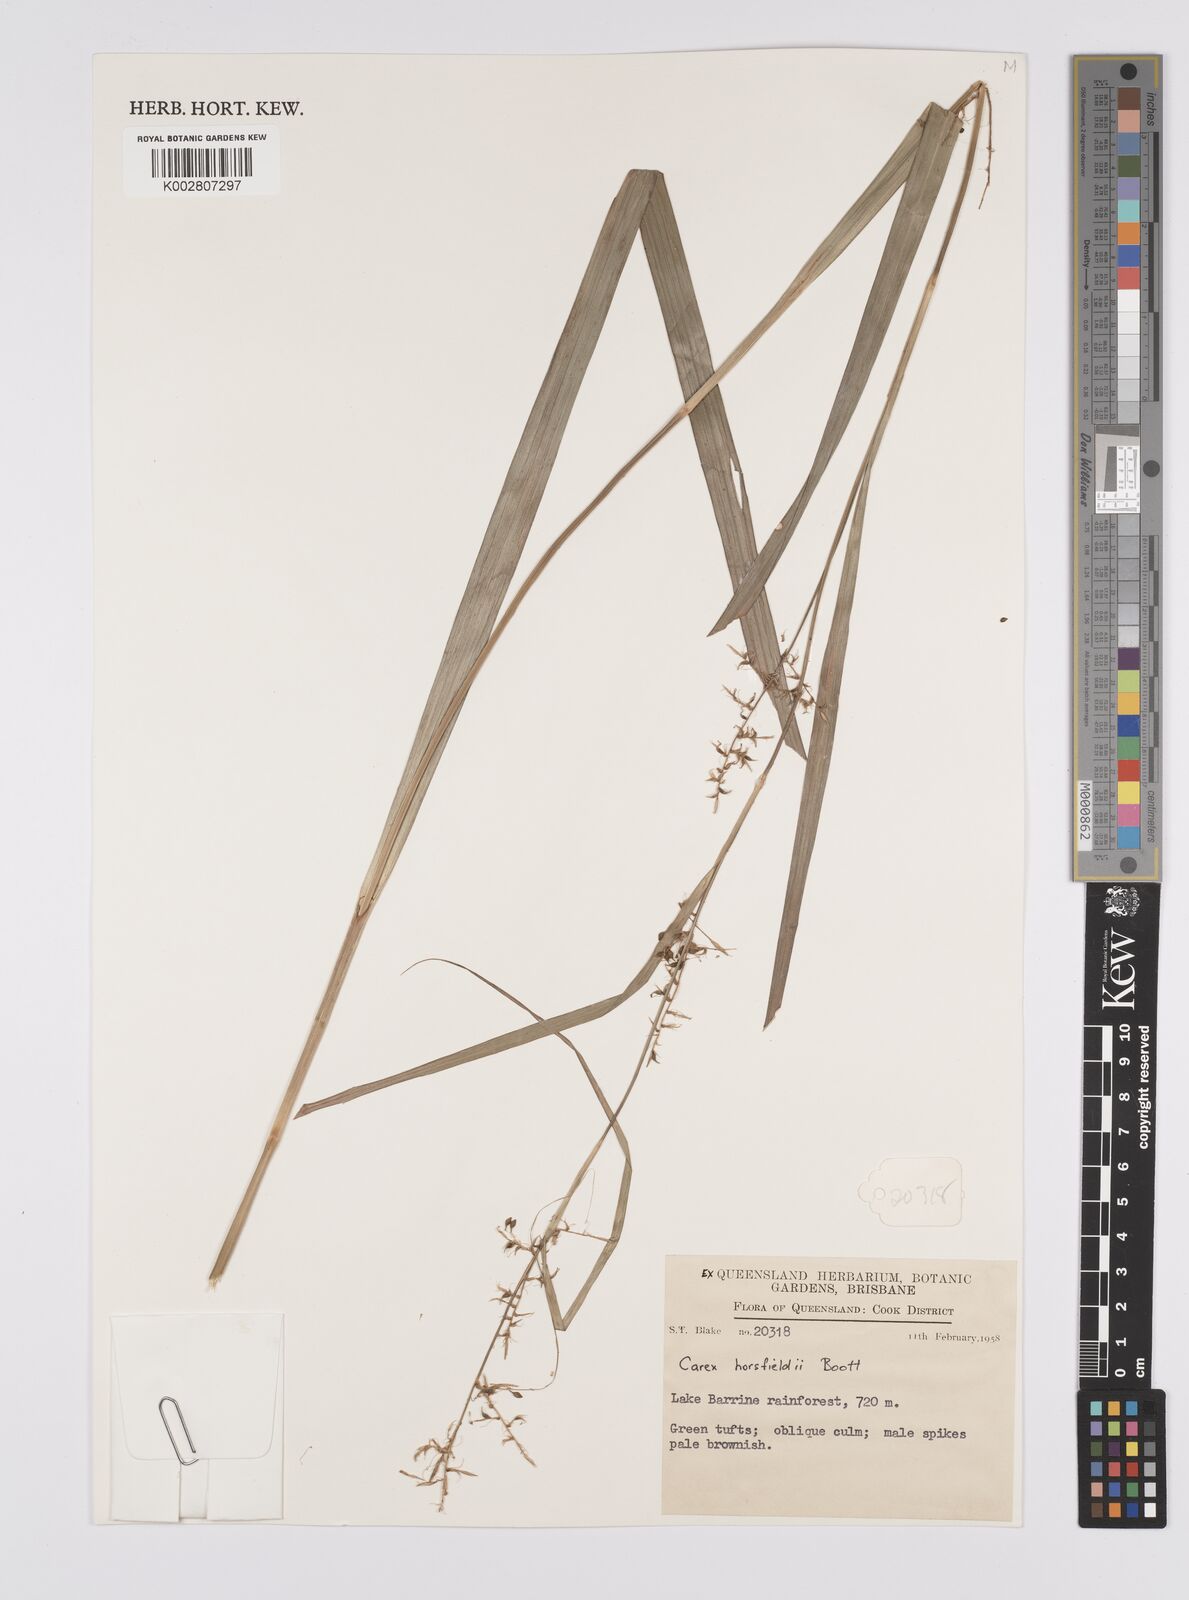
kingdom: Plantae
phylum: Tracheophyta
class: Liliopsida
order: Poales
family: Cyperaceae
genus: Carex
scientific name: Carex horsfieldii
